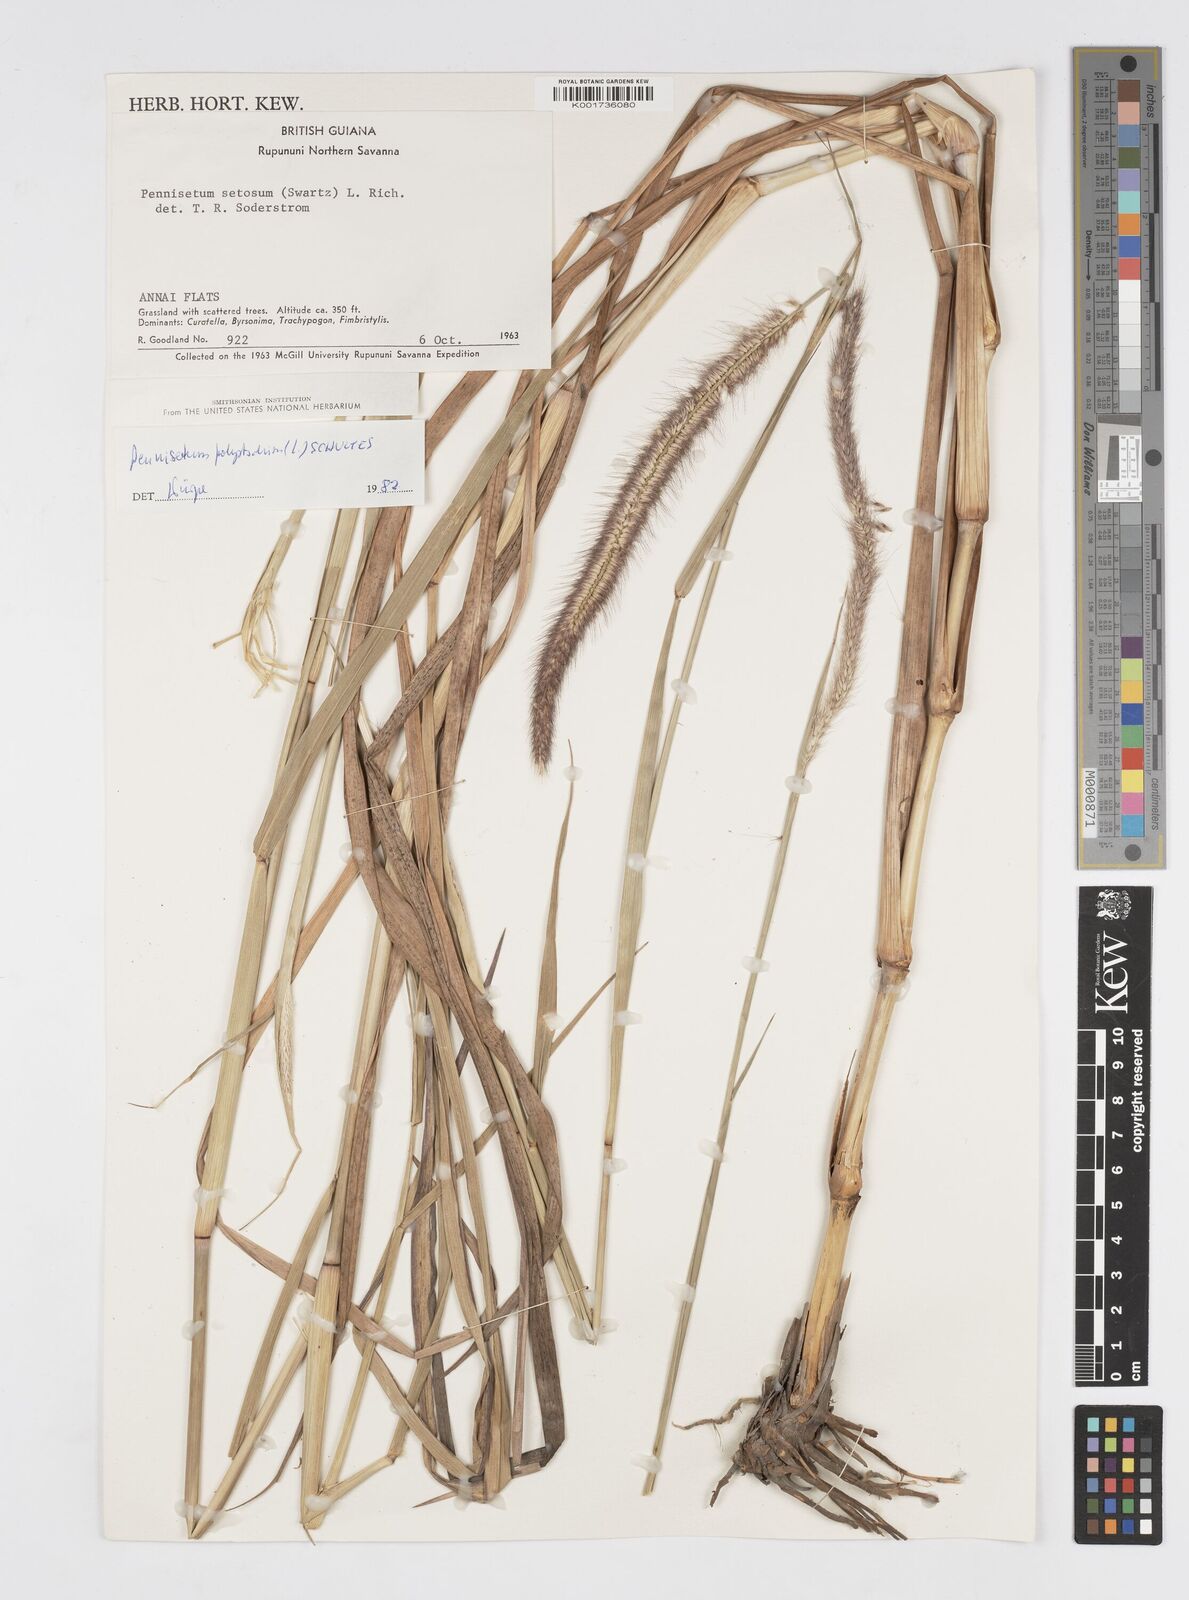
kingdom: Plantae
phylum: Tracheophyta
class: Liliopsida
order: Poales
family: Poaceae
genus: Cenchrus
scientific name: Cenchrus setosus
